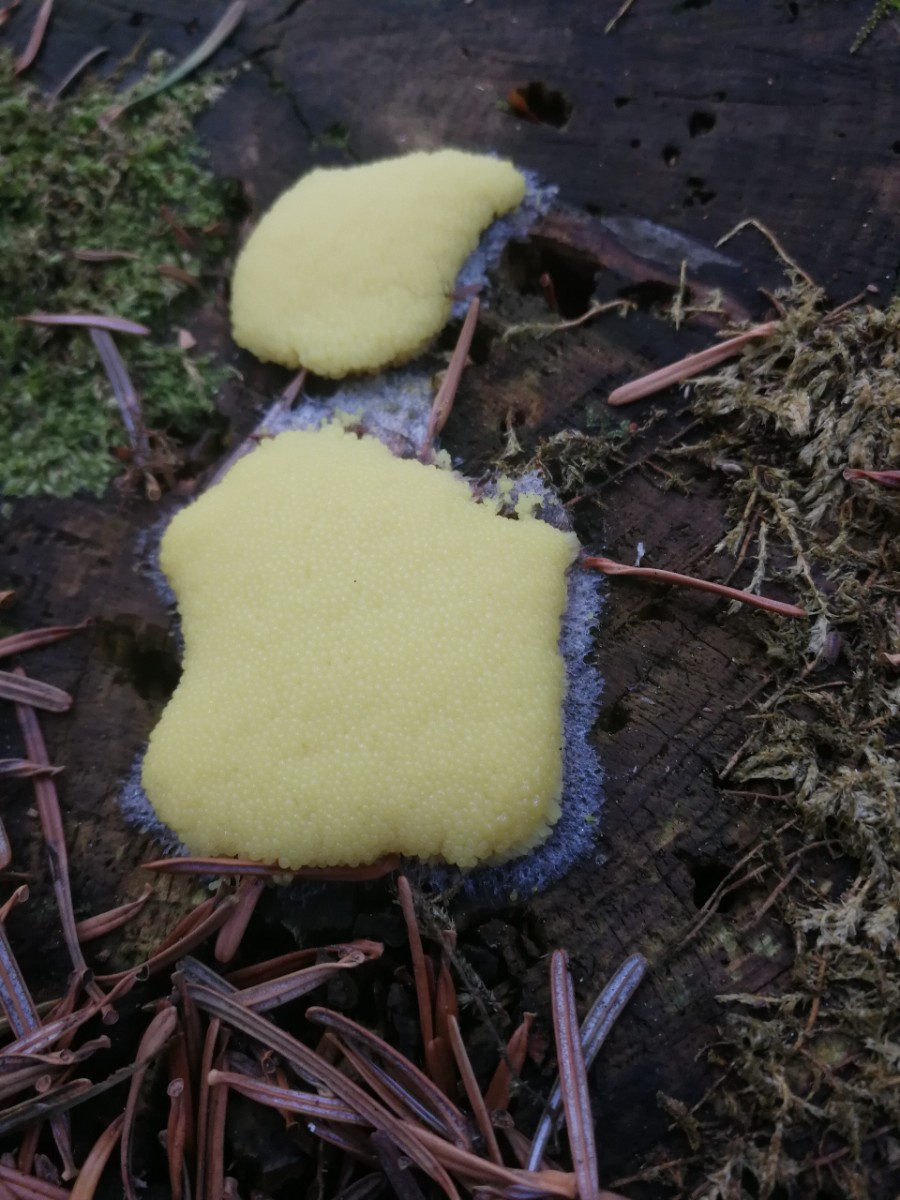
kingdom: Protozoa
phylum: Mycetozoa
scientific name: Mycetozoa
